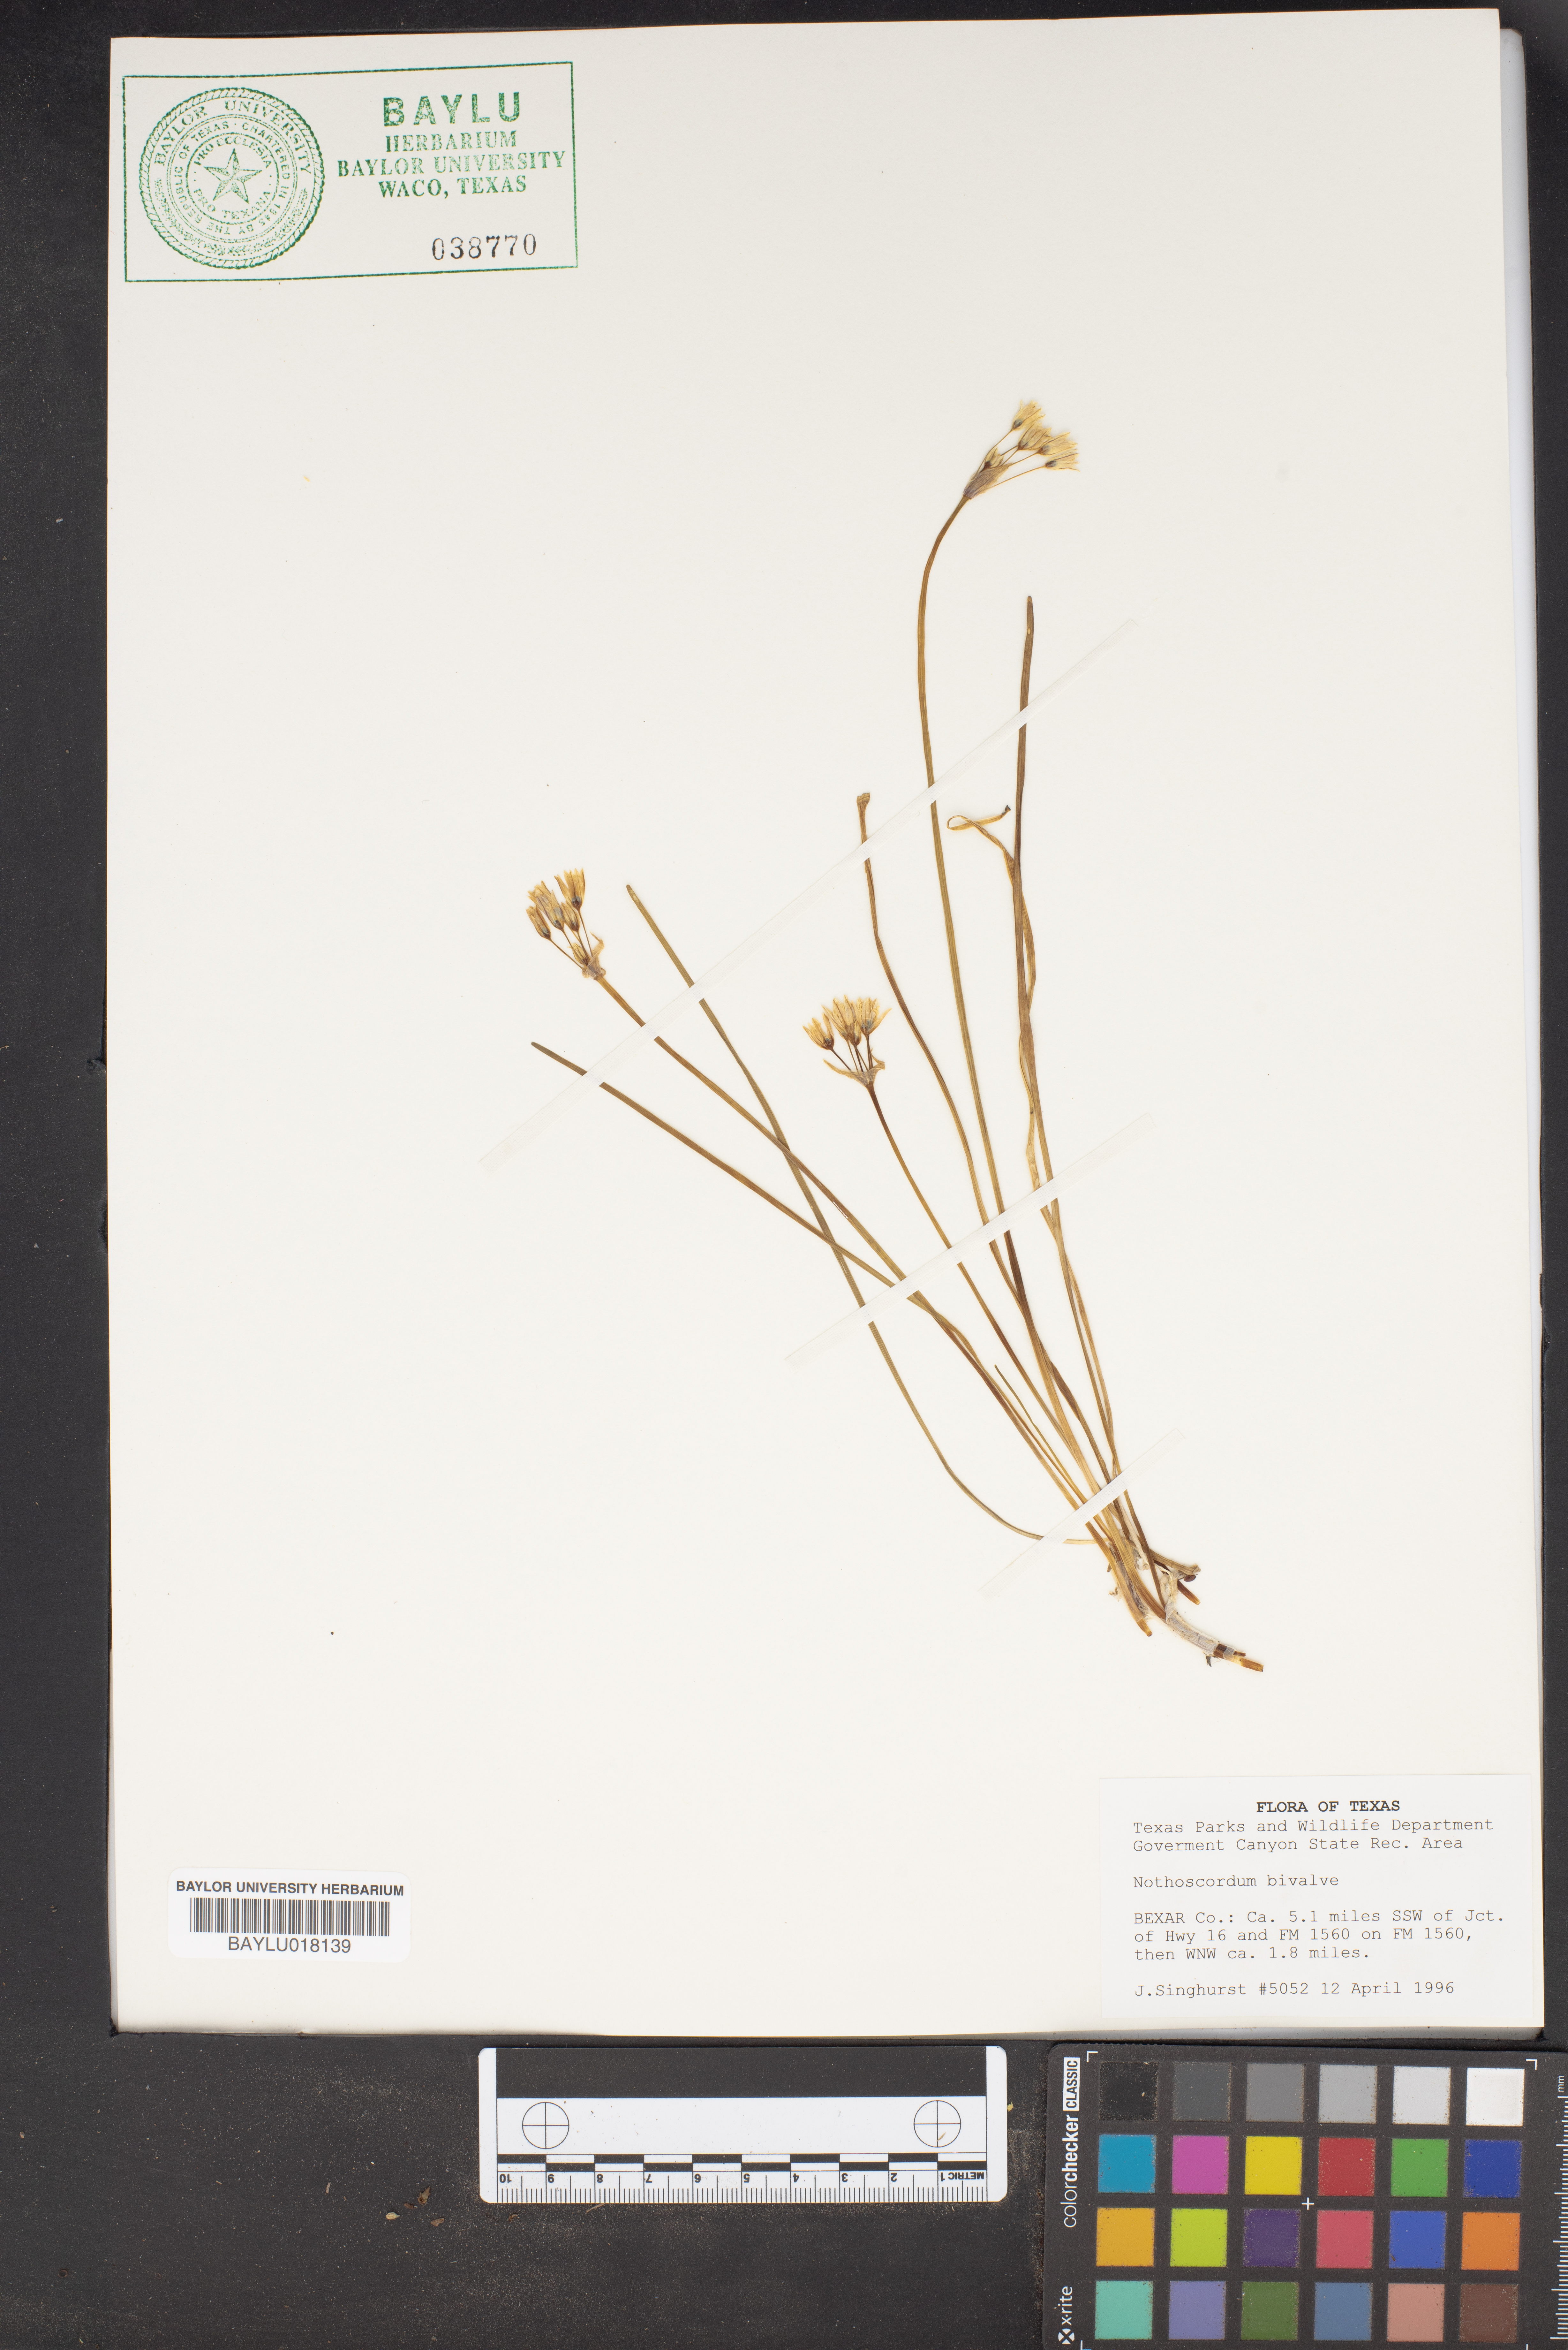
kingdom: Plantae
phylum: Tracheophyta
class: Liliopsida
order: Asparagales
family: Amaryllidaceae
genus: Nothoscordum
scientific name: Nothoscordum bivalve
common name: Crow-poison
